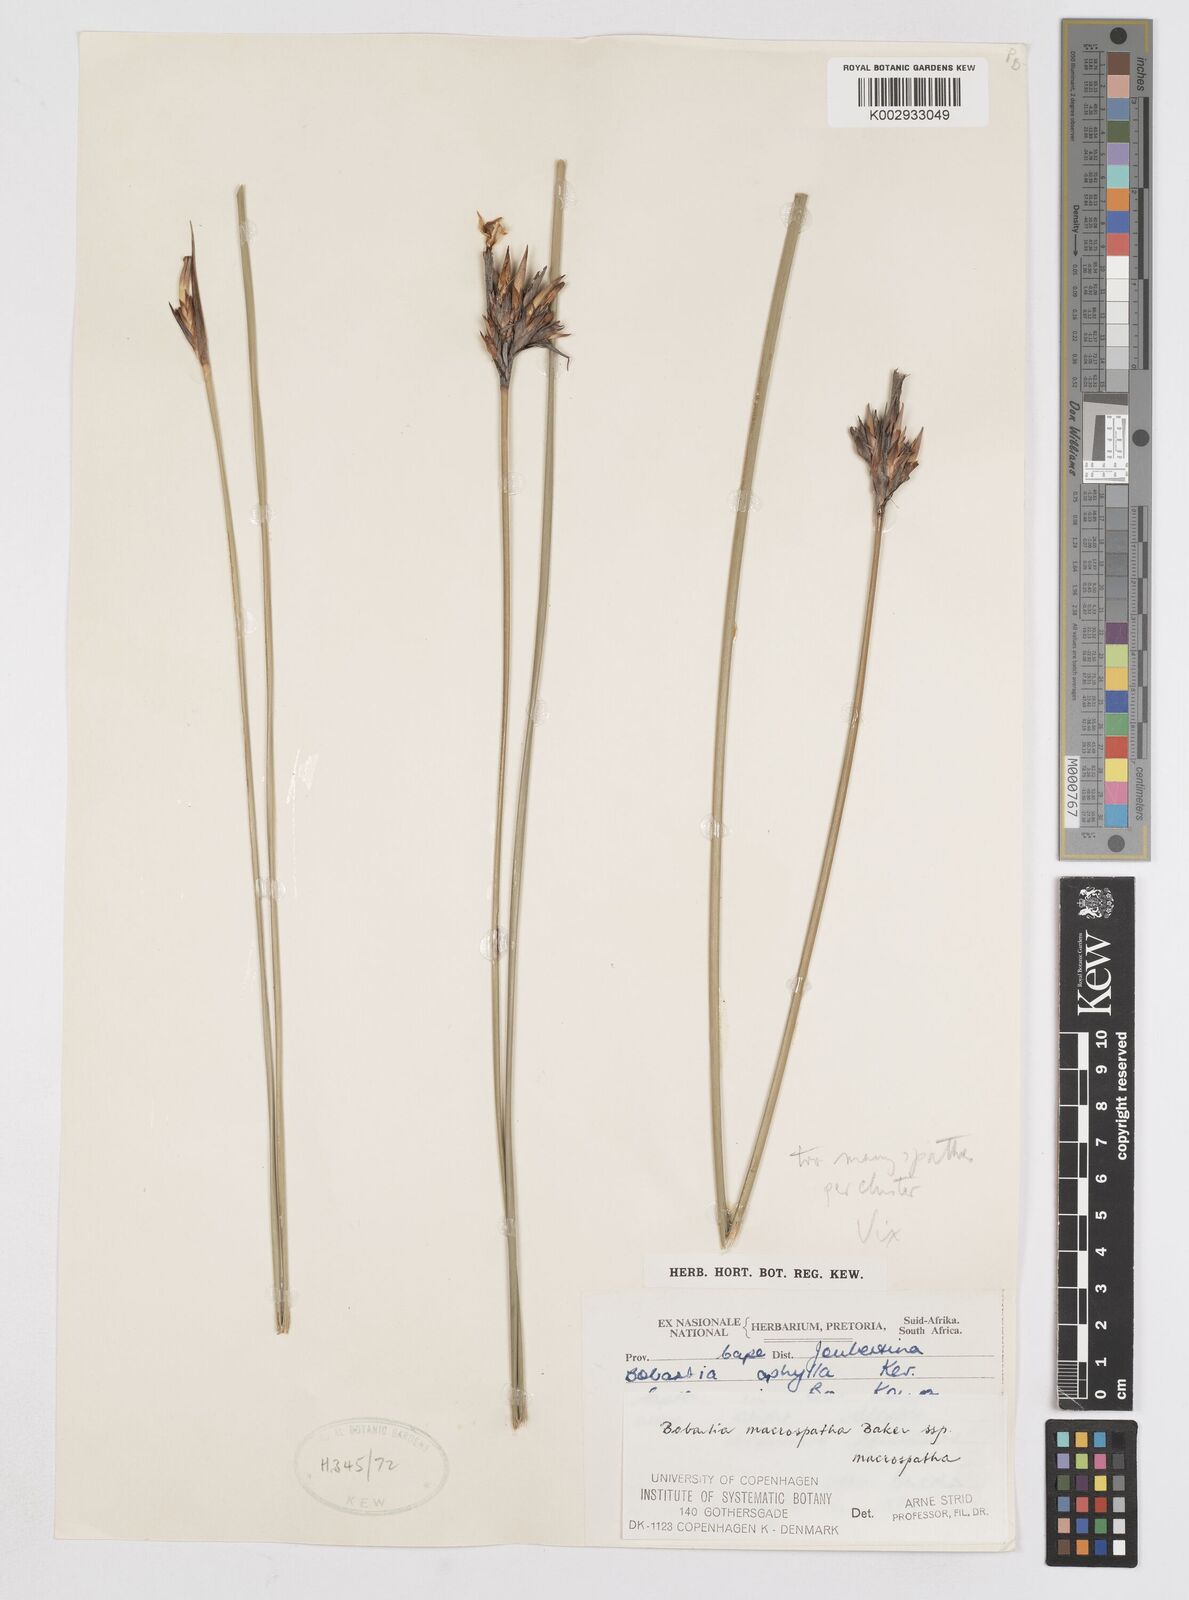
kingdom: Plantae
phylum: Tracheophyta
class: Liliopsida
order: Asparagales
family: Iridaceae
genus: Bobartia
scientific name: Bobartia macrospatha
